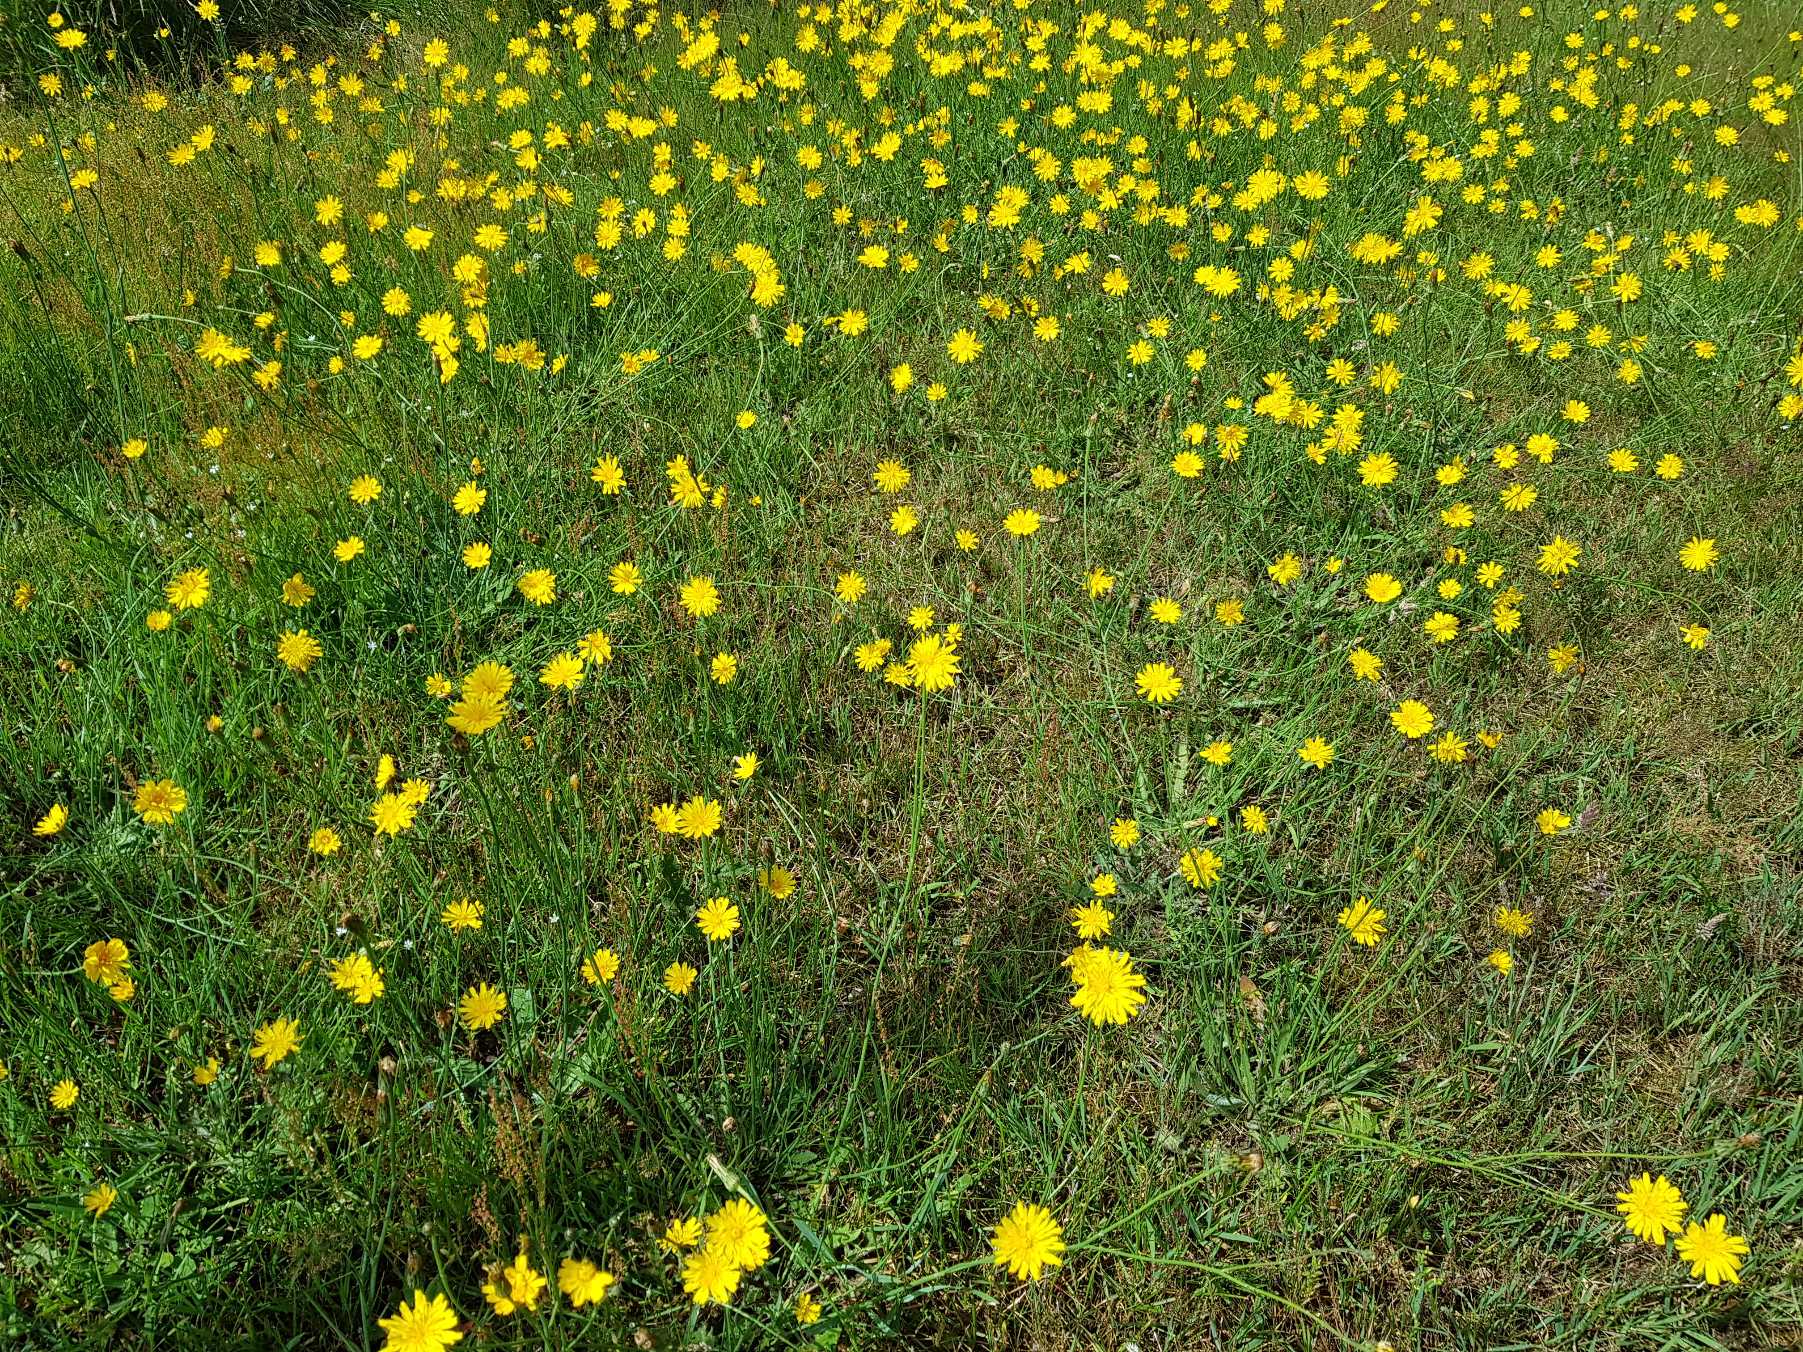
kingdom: Plantae
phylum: Tracheophyta
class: Magnoliopsida
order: Asterales
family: Asteraceae
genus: Hypochaeris
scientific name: Hypochaeris radicata
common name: Almindelig kongepen
